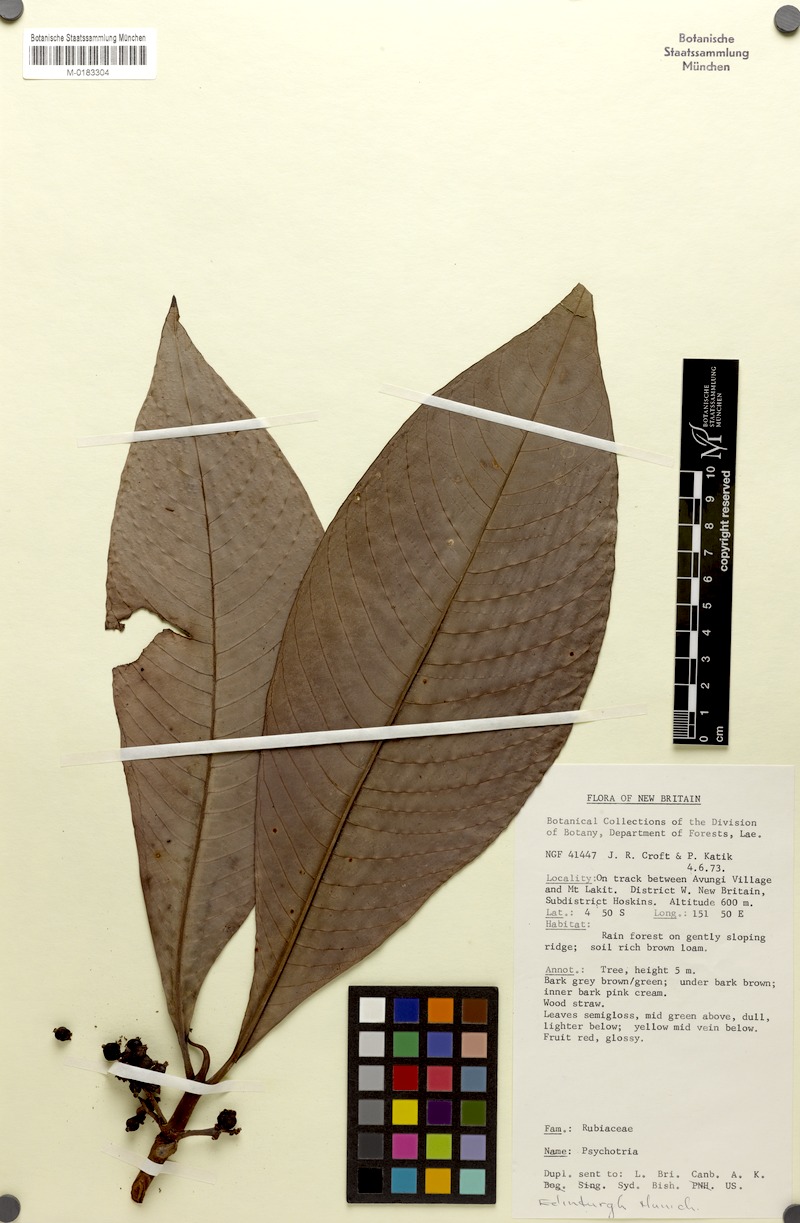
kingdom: Plantae
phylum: Tracheophyta
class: Magnoliopsida
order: Gentianales
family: Rubiaceae
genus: Psychotria
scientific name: Psychotria multipedunculata
